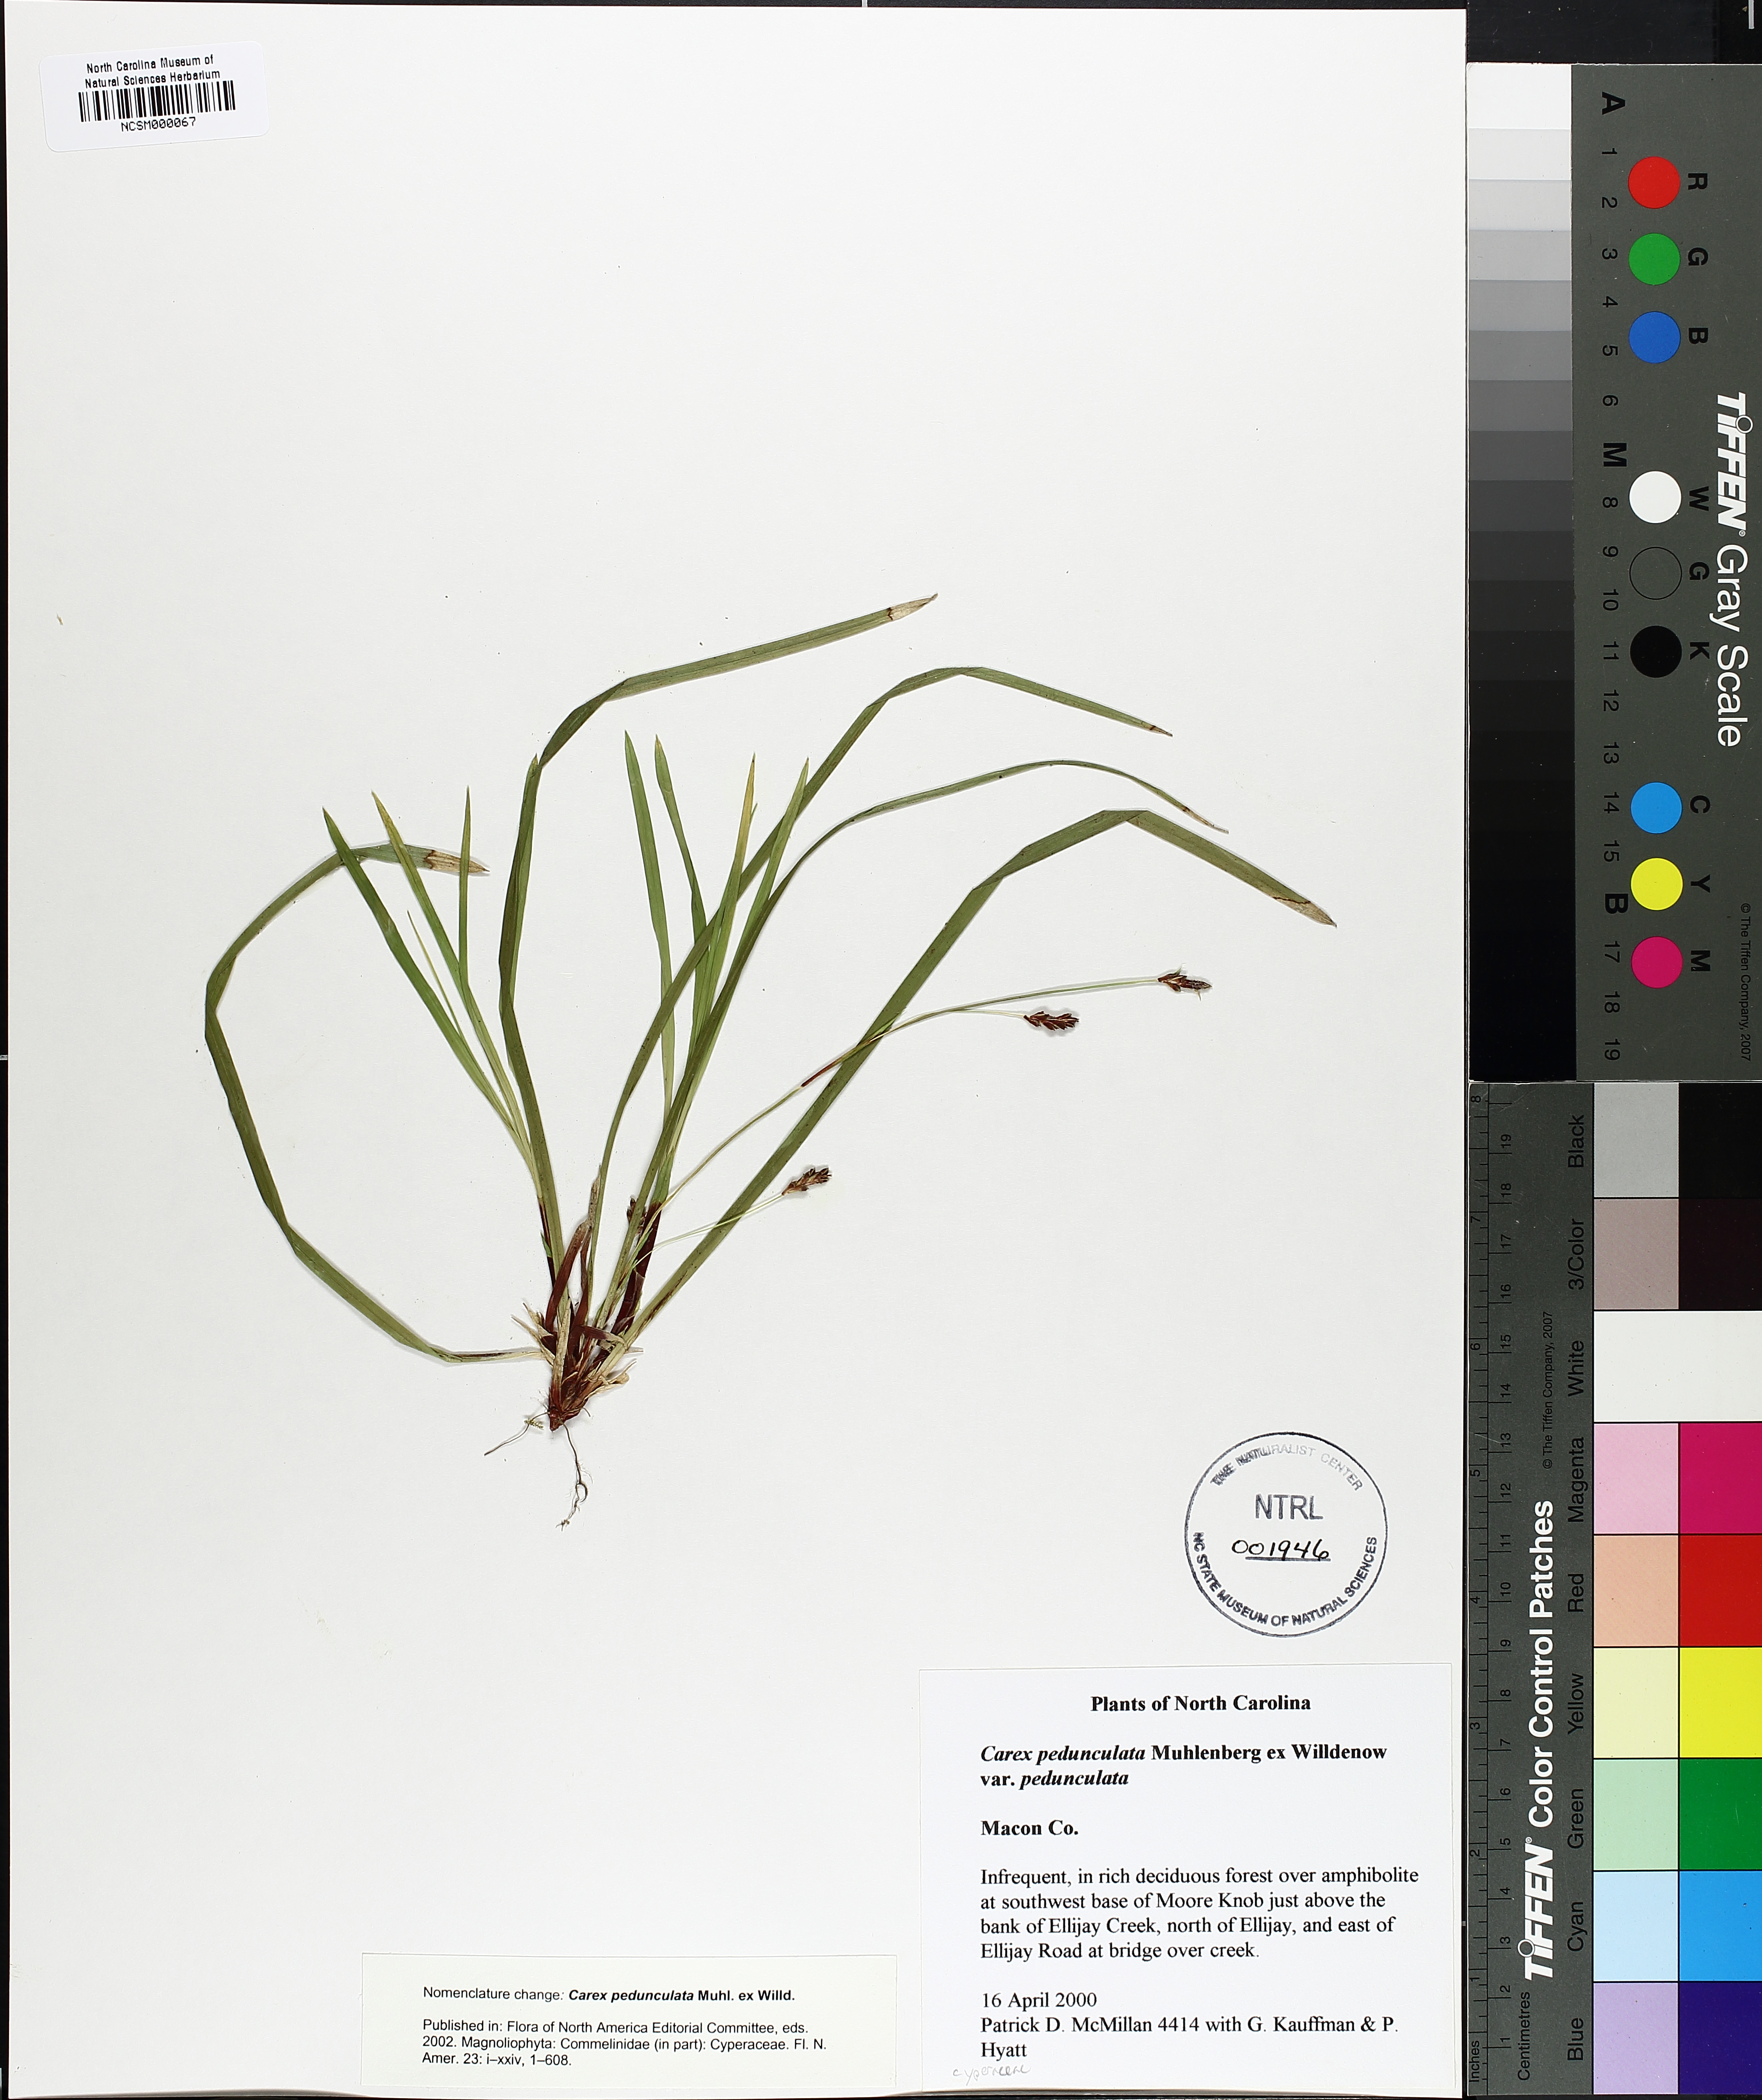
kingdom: Plantae
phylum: Tracheophyta
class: Liliopsida
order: Poales
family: Cyperaceae
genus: Carex
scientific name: Carex pedunculata
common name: Pedunculate sedge
